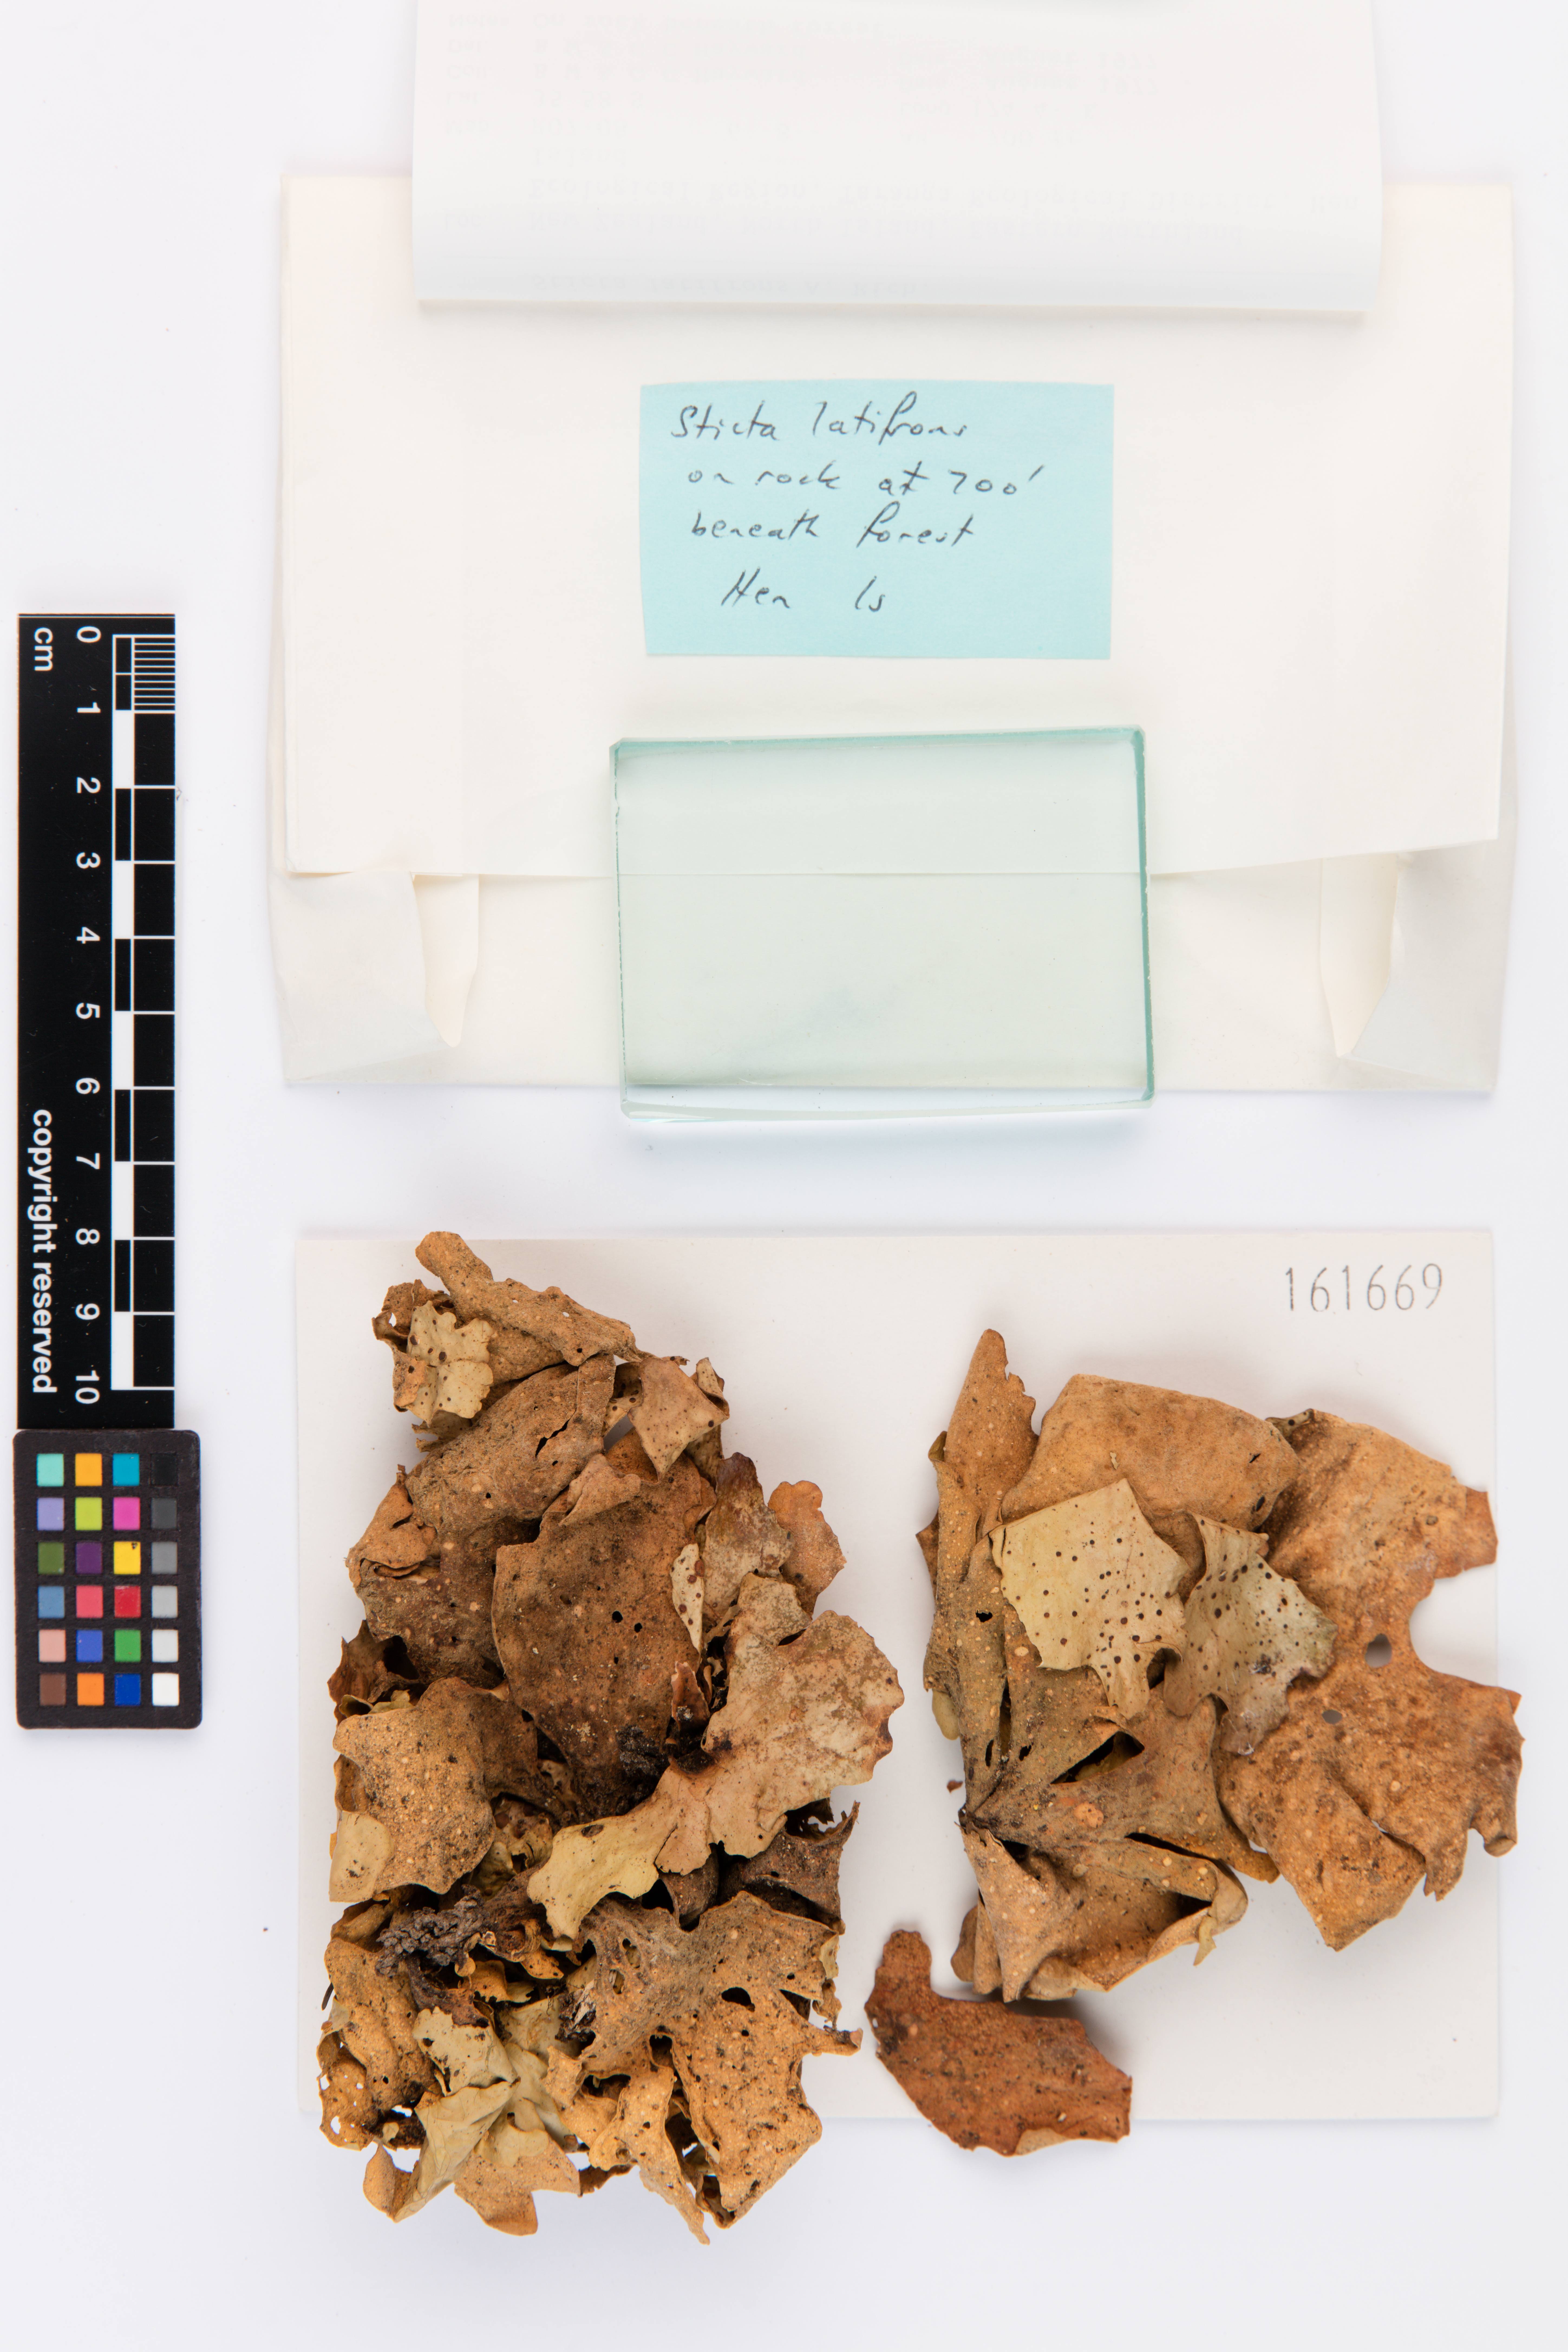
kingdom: Fungi
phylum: Ascomycota
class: Lecanoromycetes
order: Peltigerales
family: Lobariaceae
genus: Sticta
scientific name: Sticta latifrons
